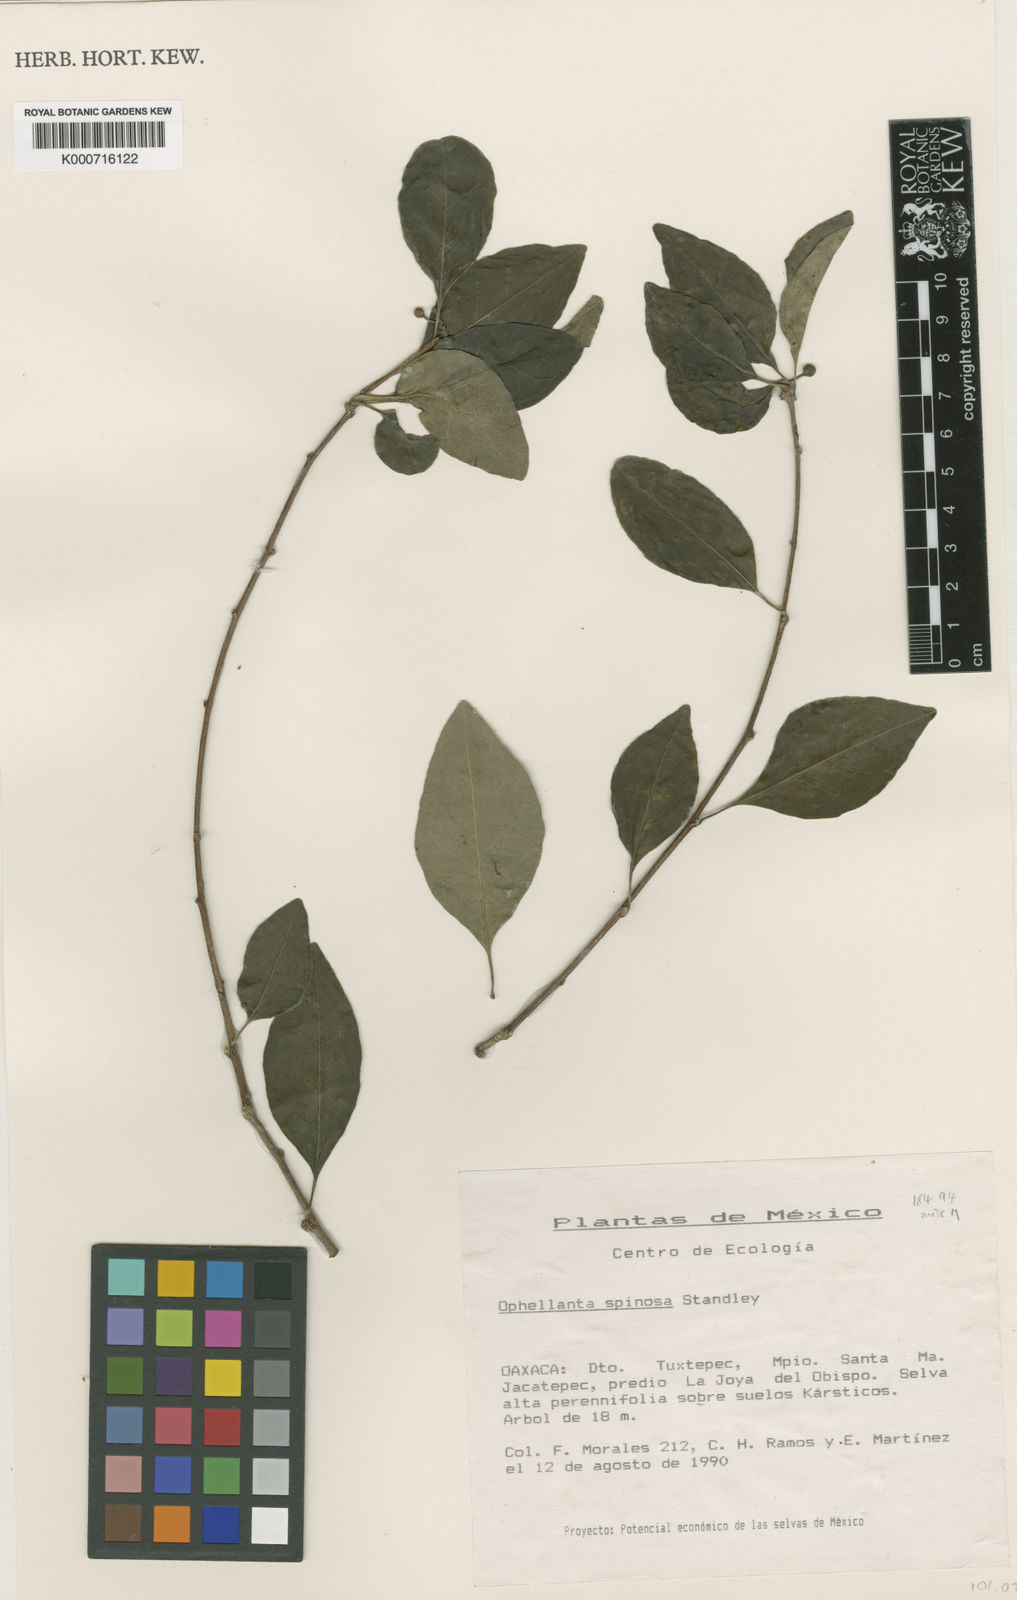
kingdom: Plantae
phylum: Tracheophyta
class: Magnoliopsida
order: Malpighiales
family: Euphorbiaceae
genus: Ophellantha
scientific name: Ophellantha spinosa
